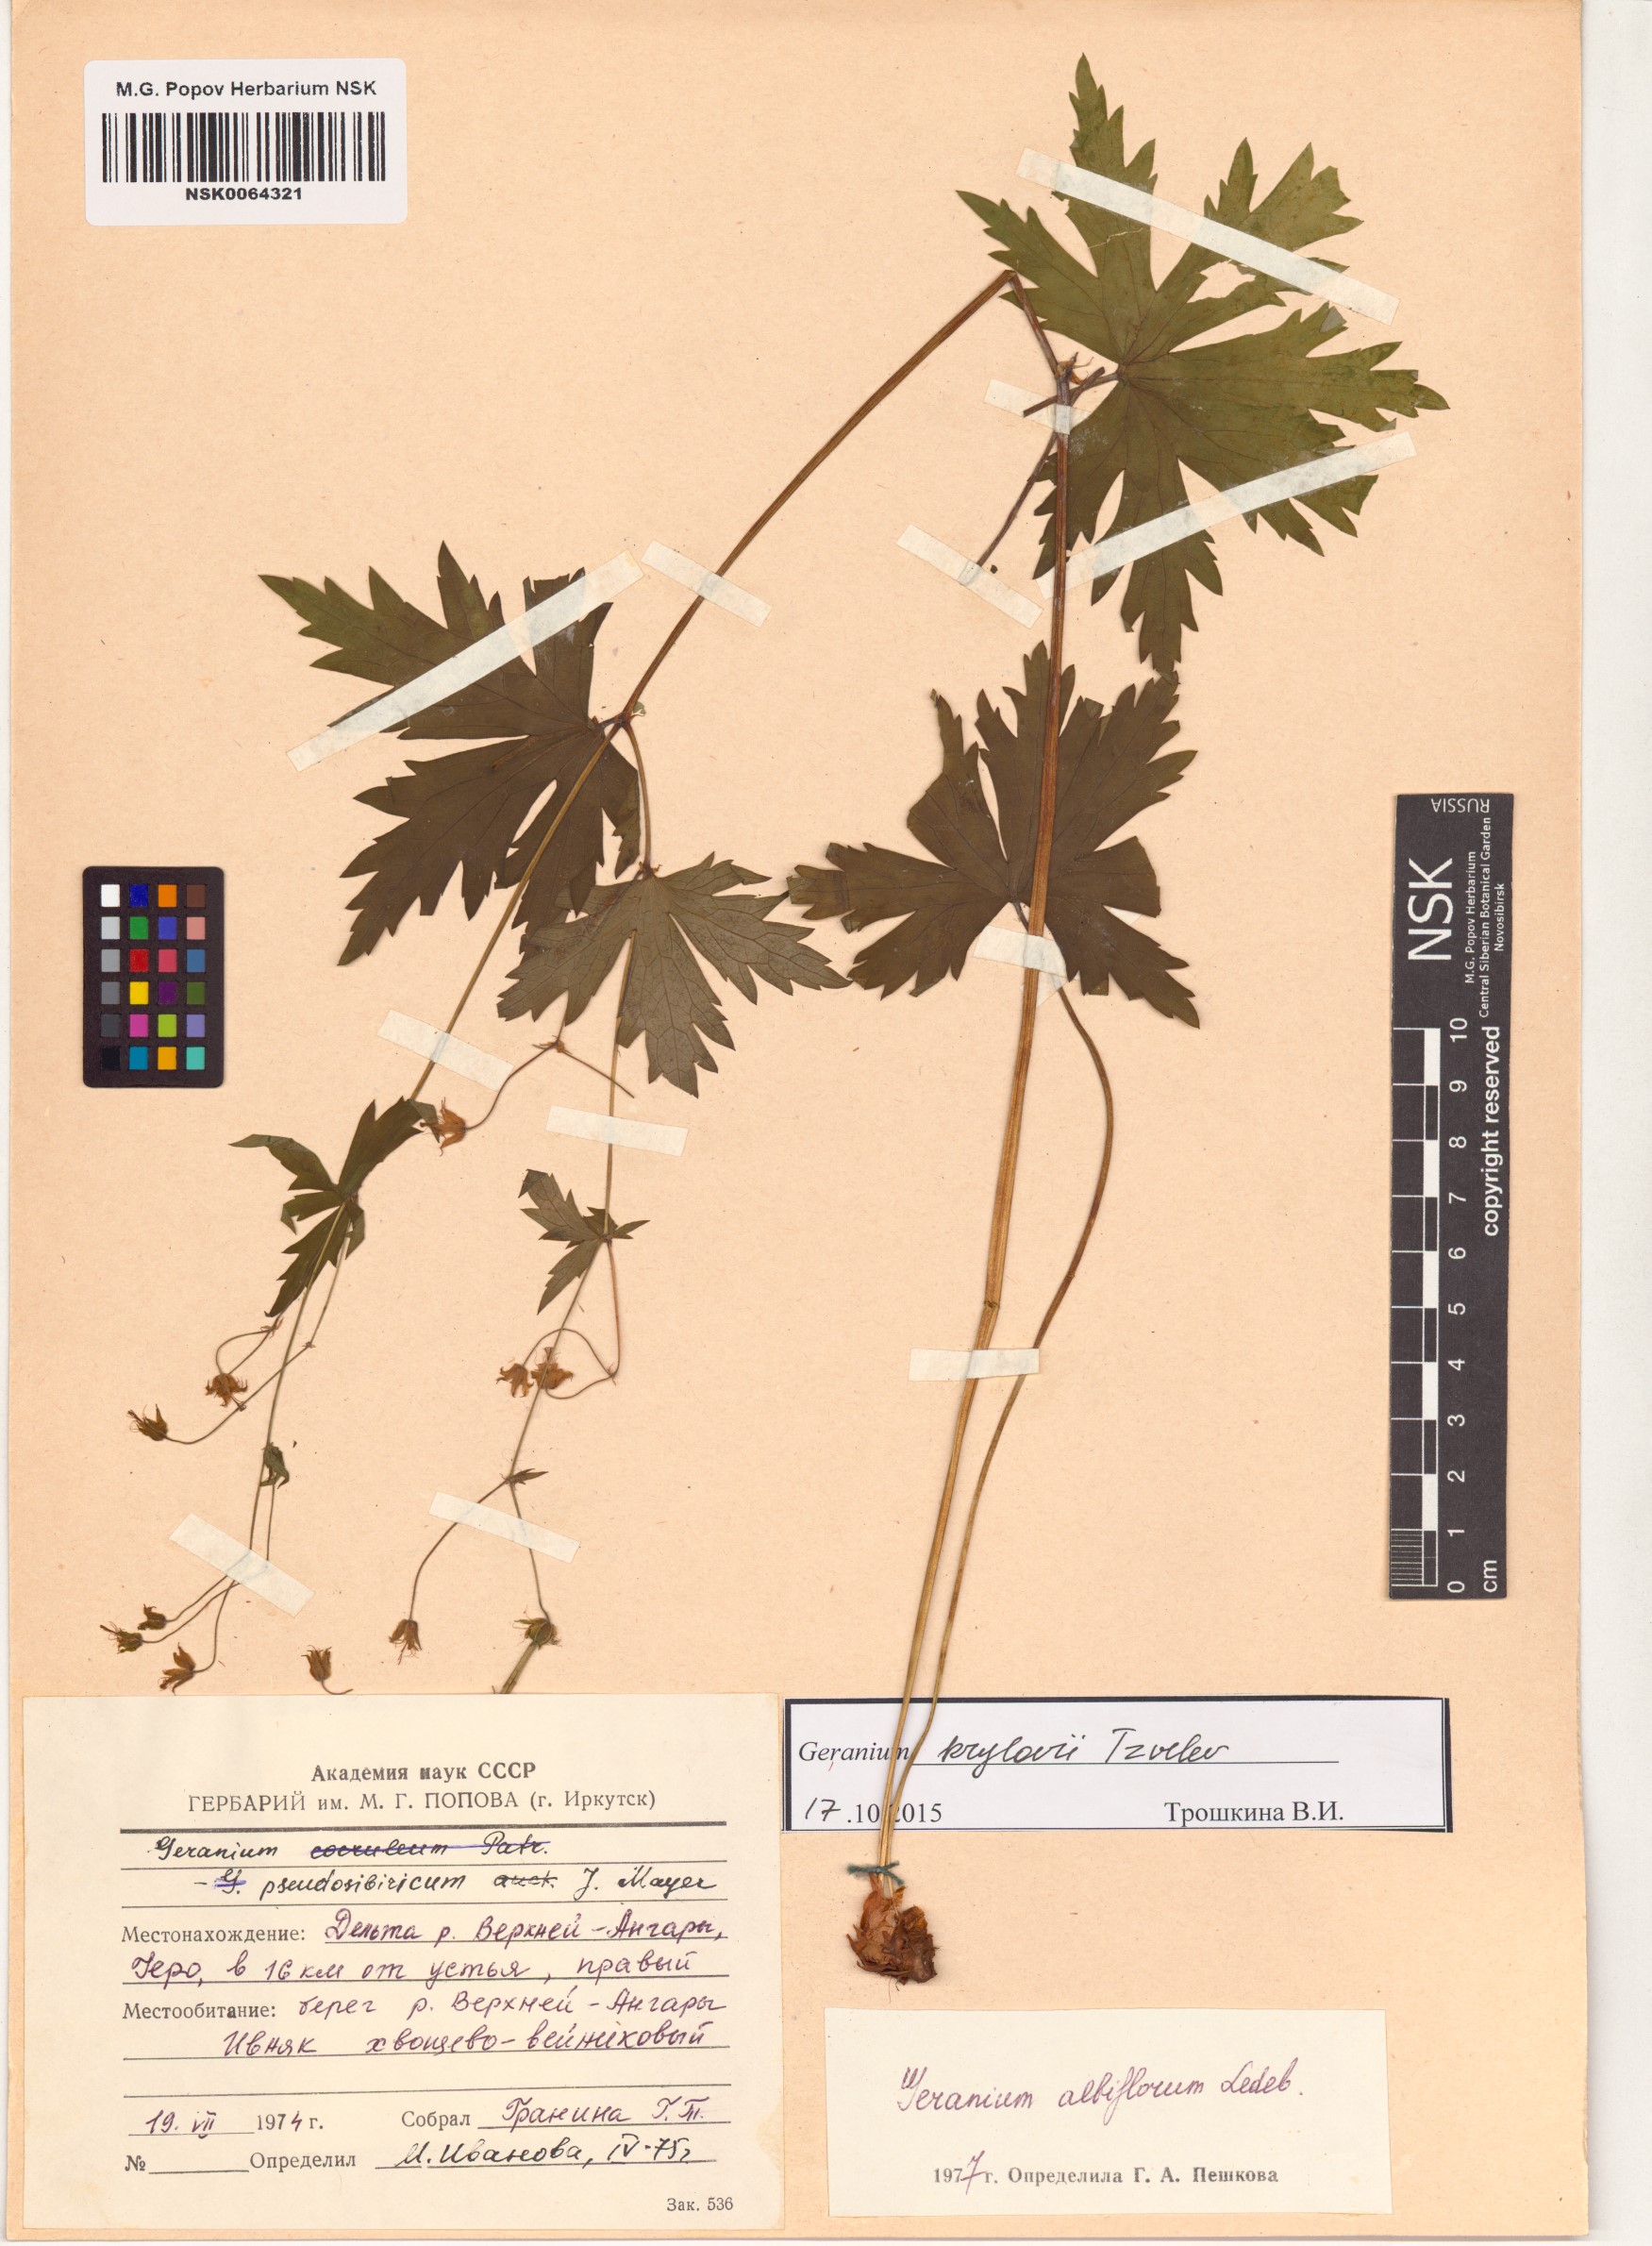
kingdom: Plantae
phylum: Tracheophyta
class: Magnoliopsida
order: Geraniales
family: Geraniaceae
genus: Geranium
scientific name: Geranium sylvaticum
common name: Wood crane's-bill
